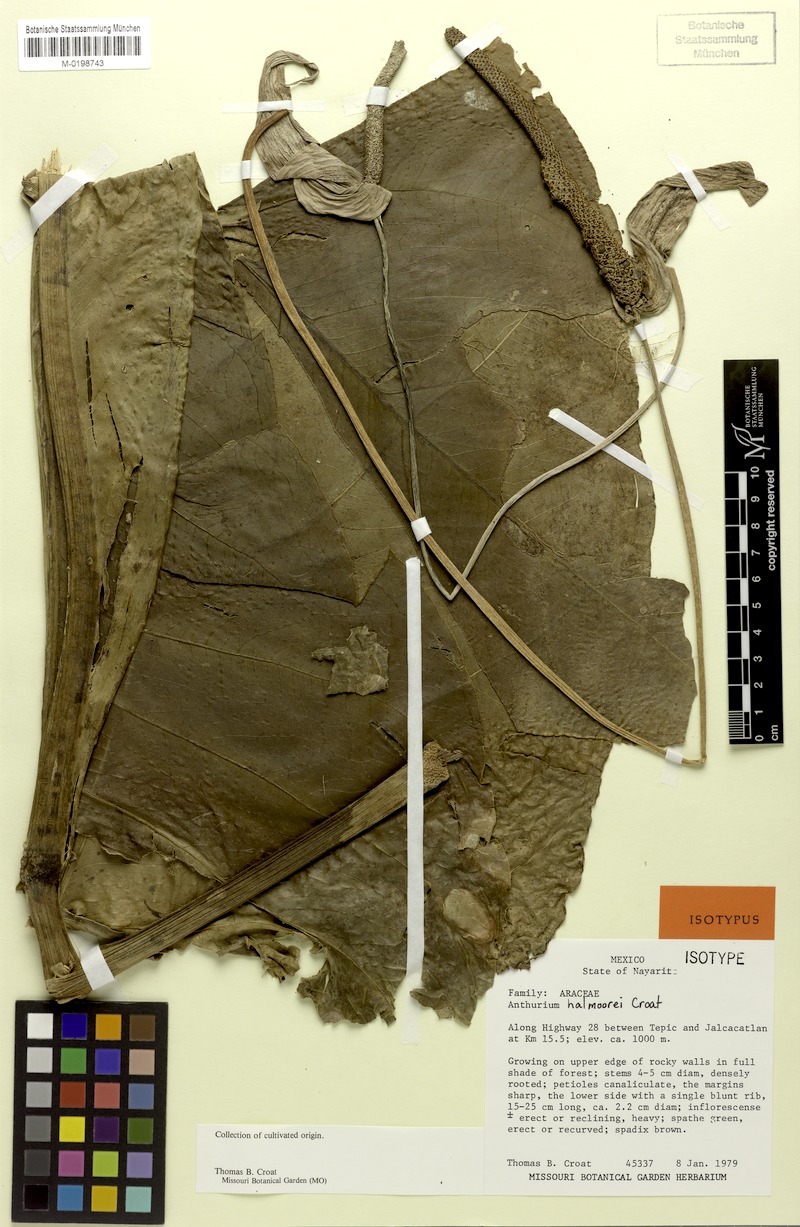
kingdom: Plantae
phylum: Tracheophyta
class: Liliopsida
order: Alismatales
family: Araceae
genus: Anthurium
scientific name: Anthurium halmoorei
